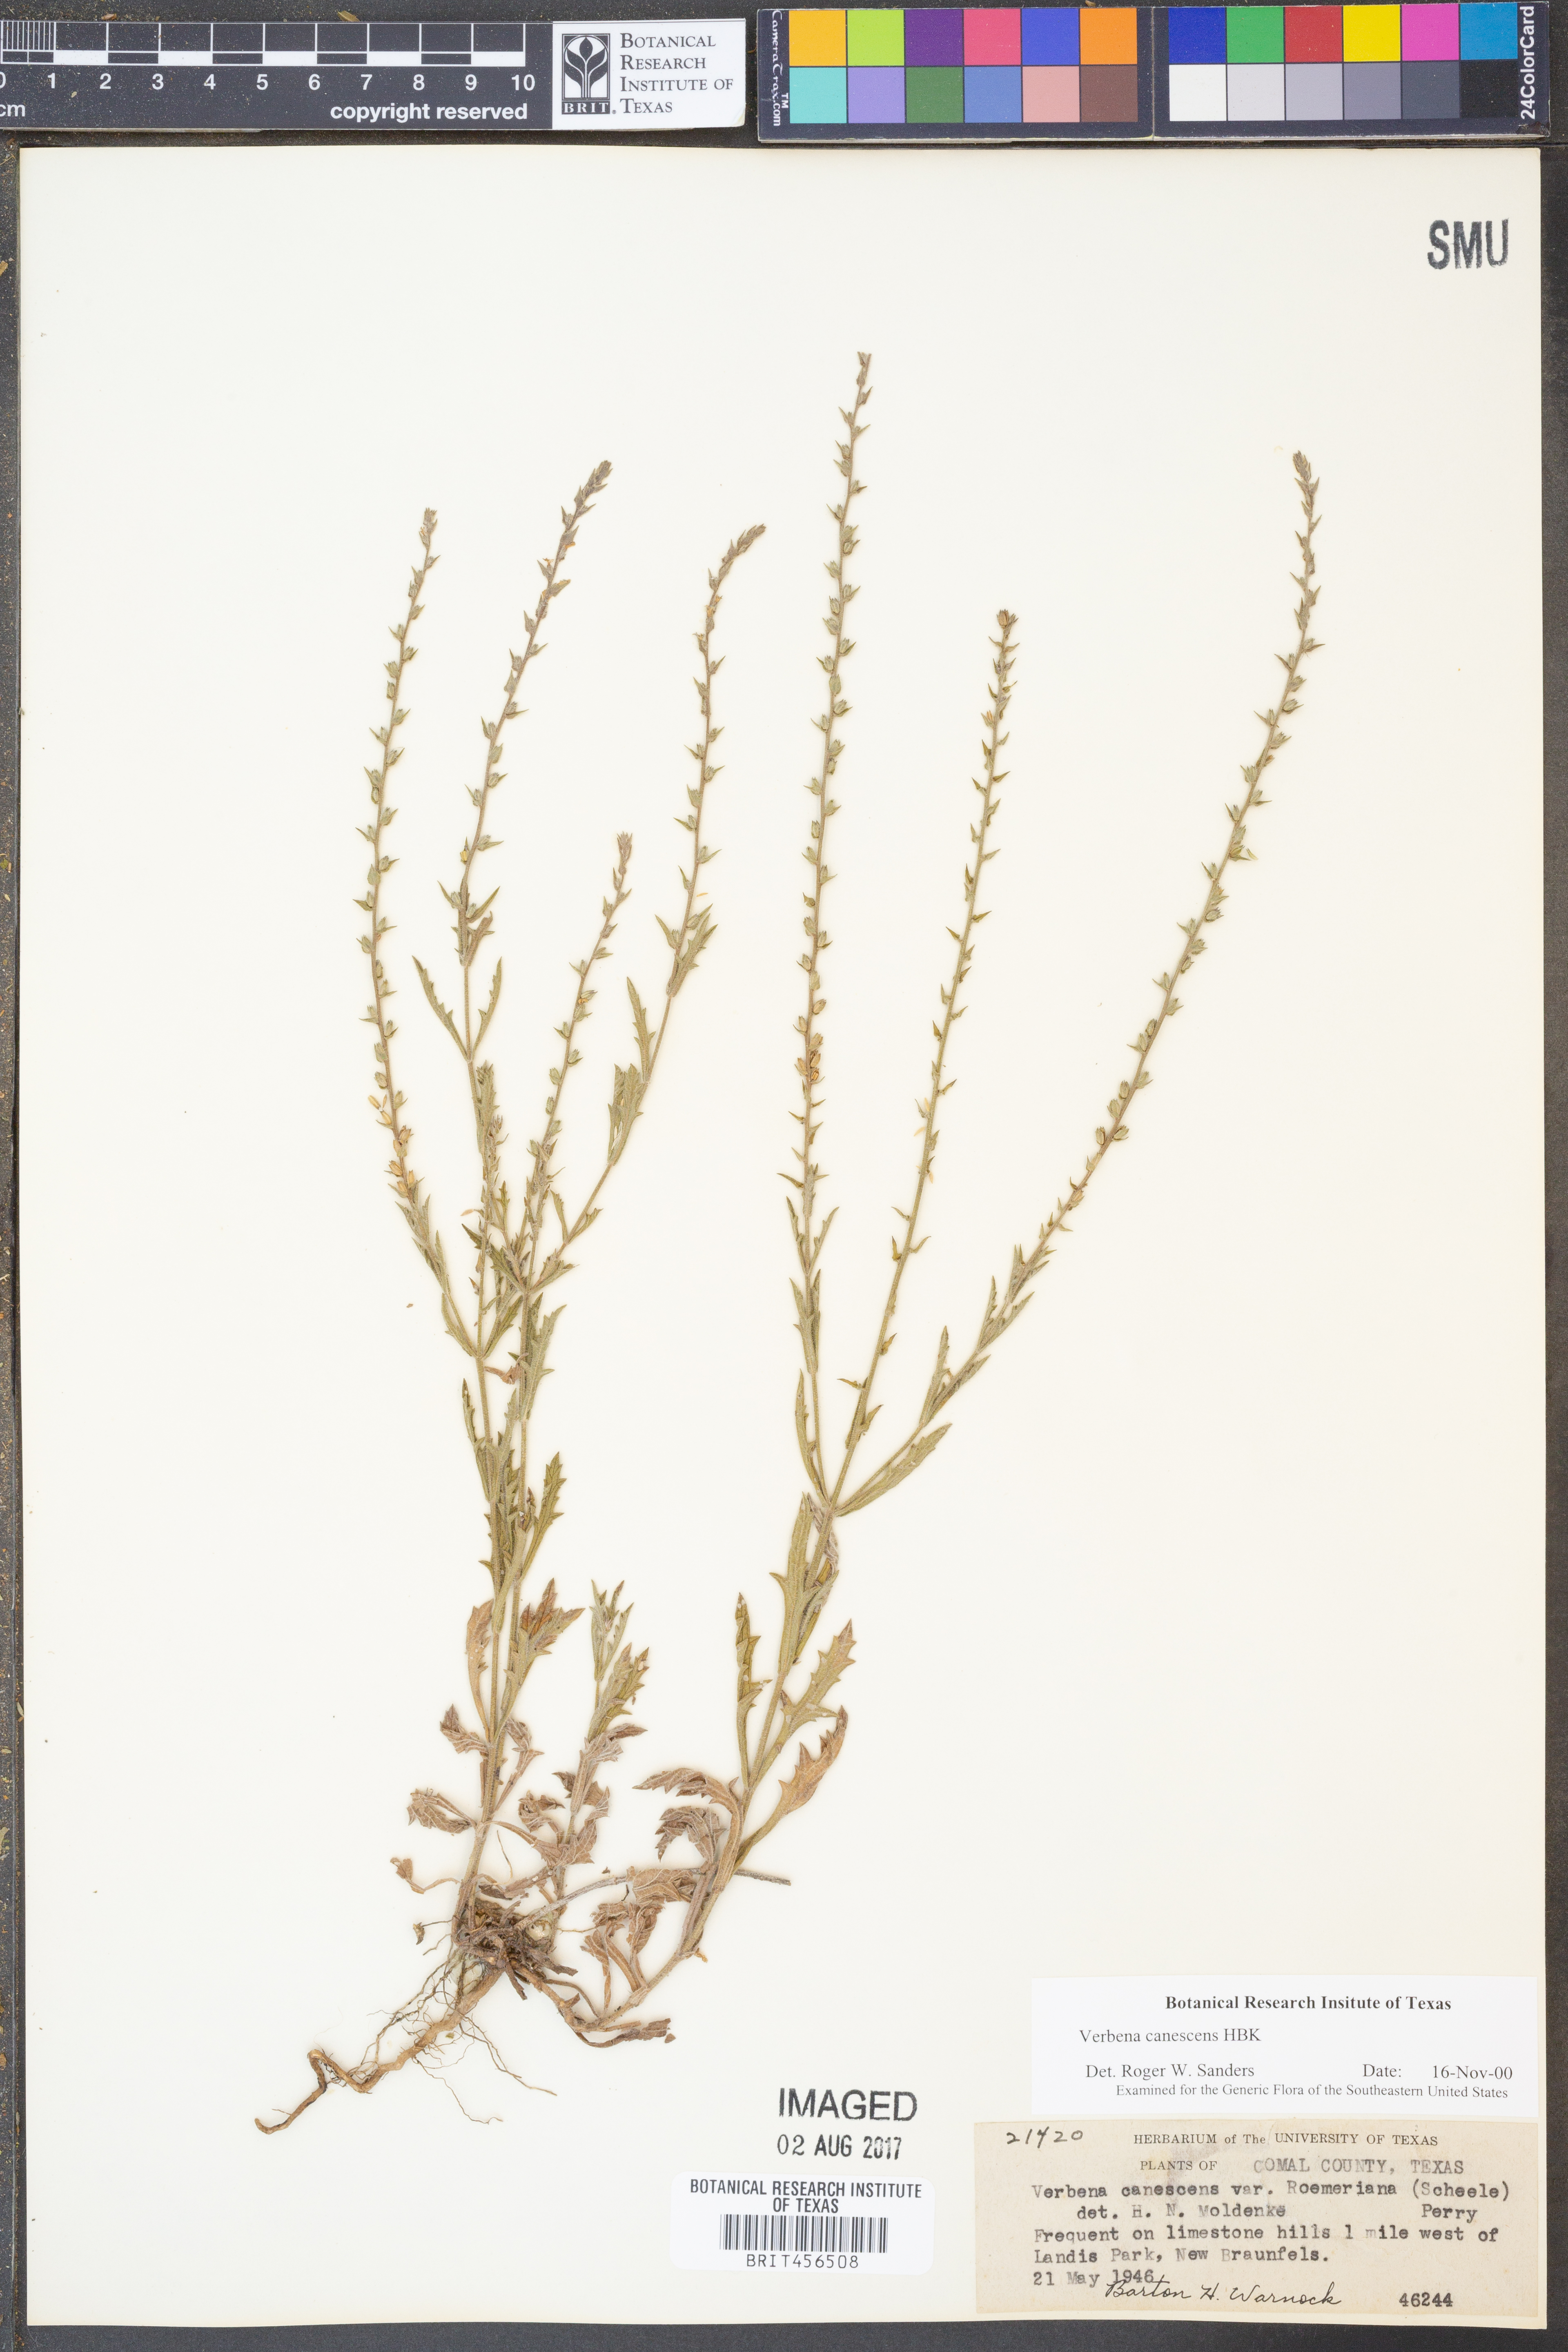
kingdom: Plantae
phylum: Tracheophyta
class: Magnoliopsida
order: Lamiales
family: Verbenaceae
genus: Verbena
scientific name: Verbena canescens
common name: Gray vervain
